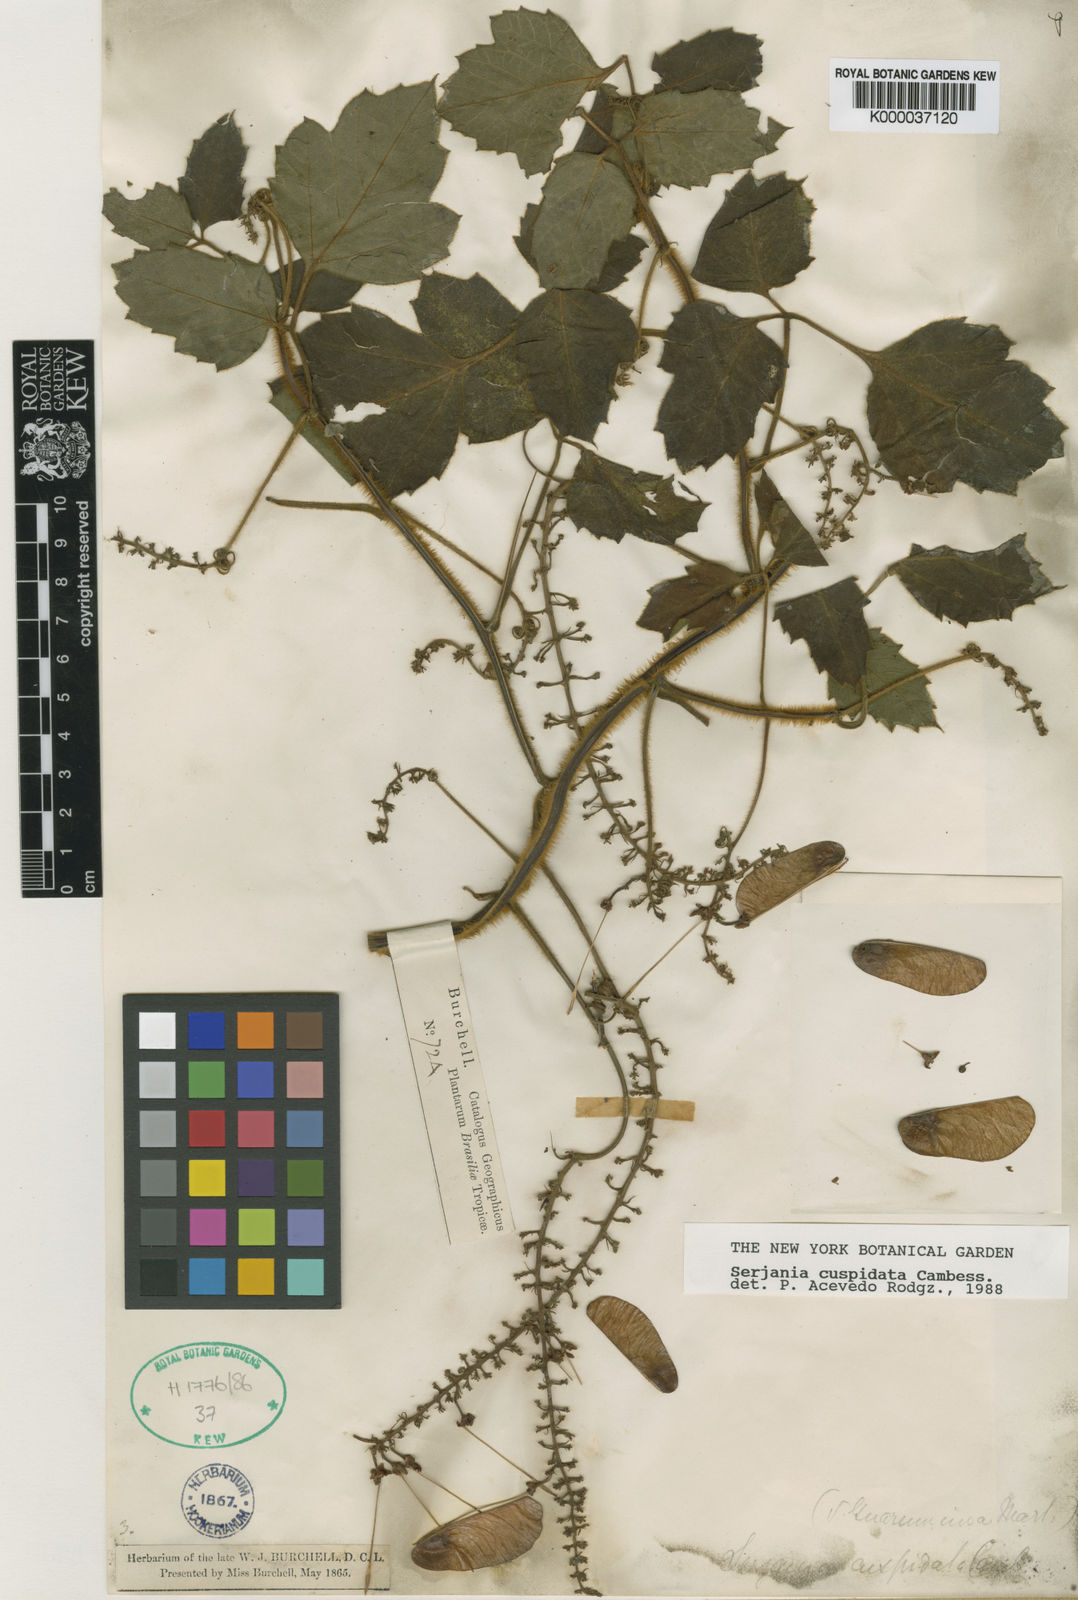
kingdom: Plantae
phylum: Tracheophyta
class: Magnoliopsida
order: Sapindales
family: Sapindaceae
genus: Serjania
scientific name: Serjania ferruginea
